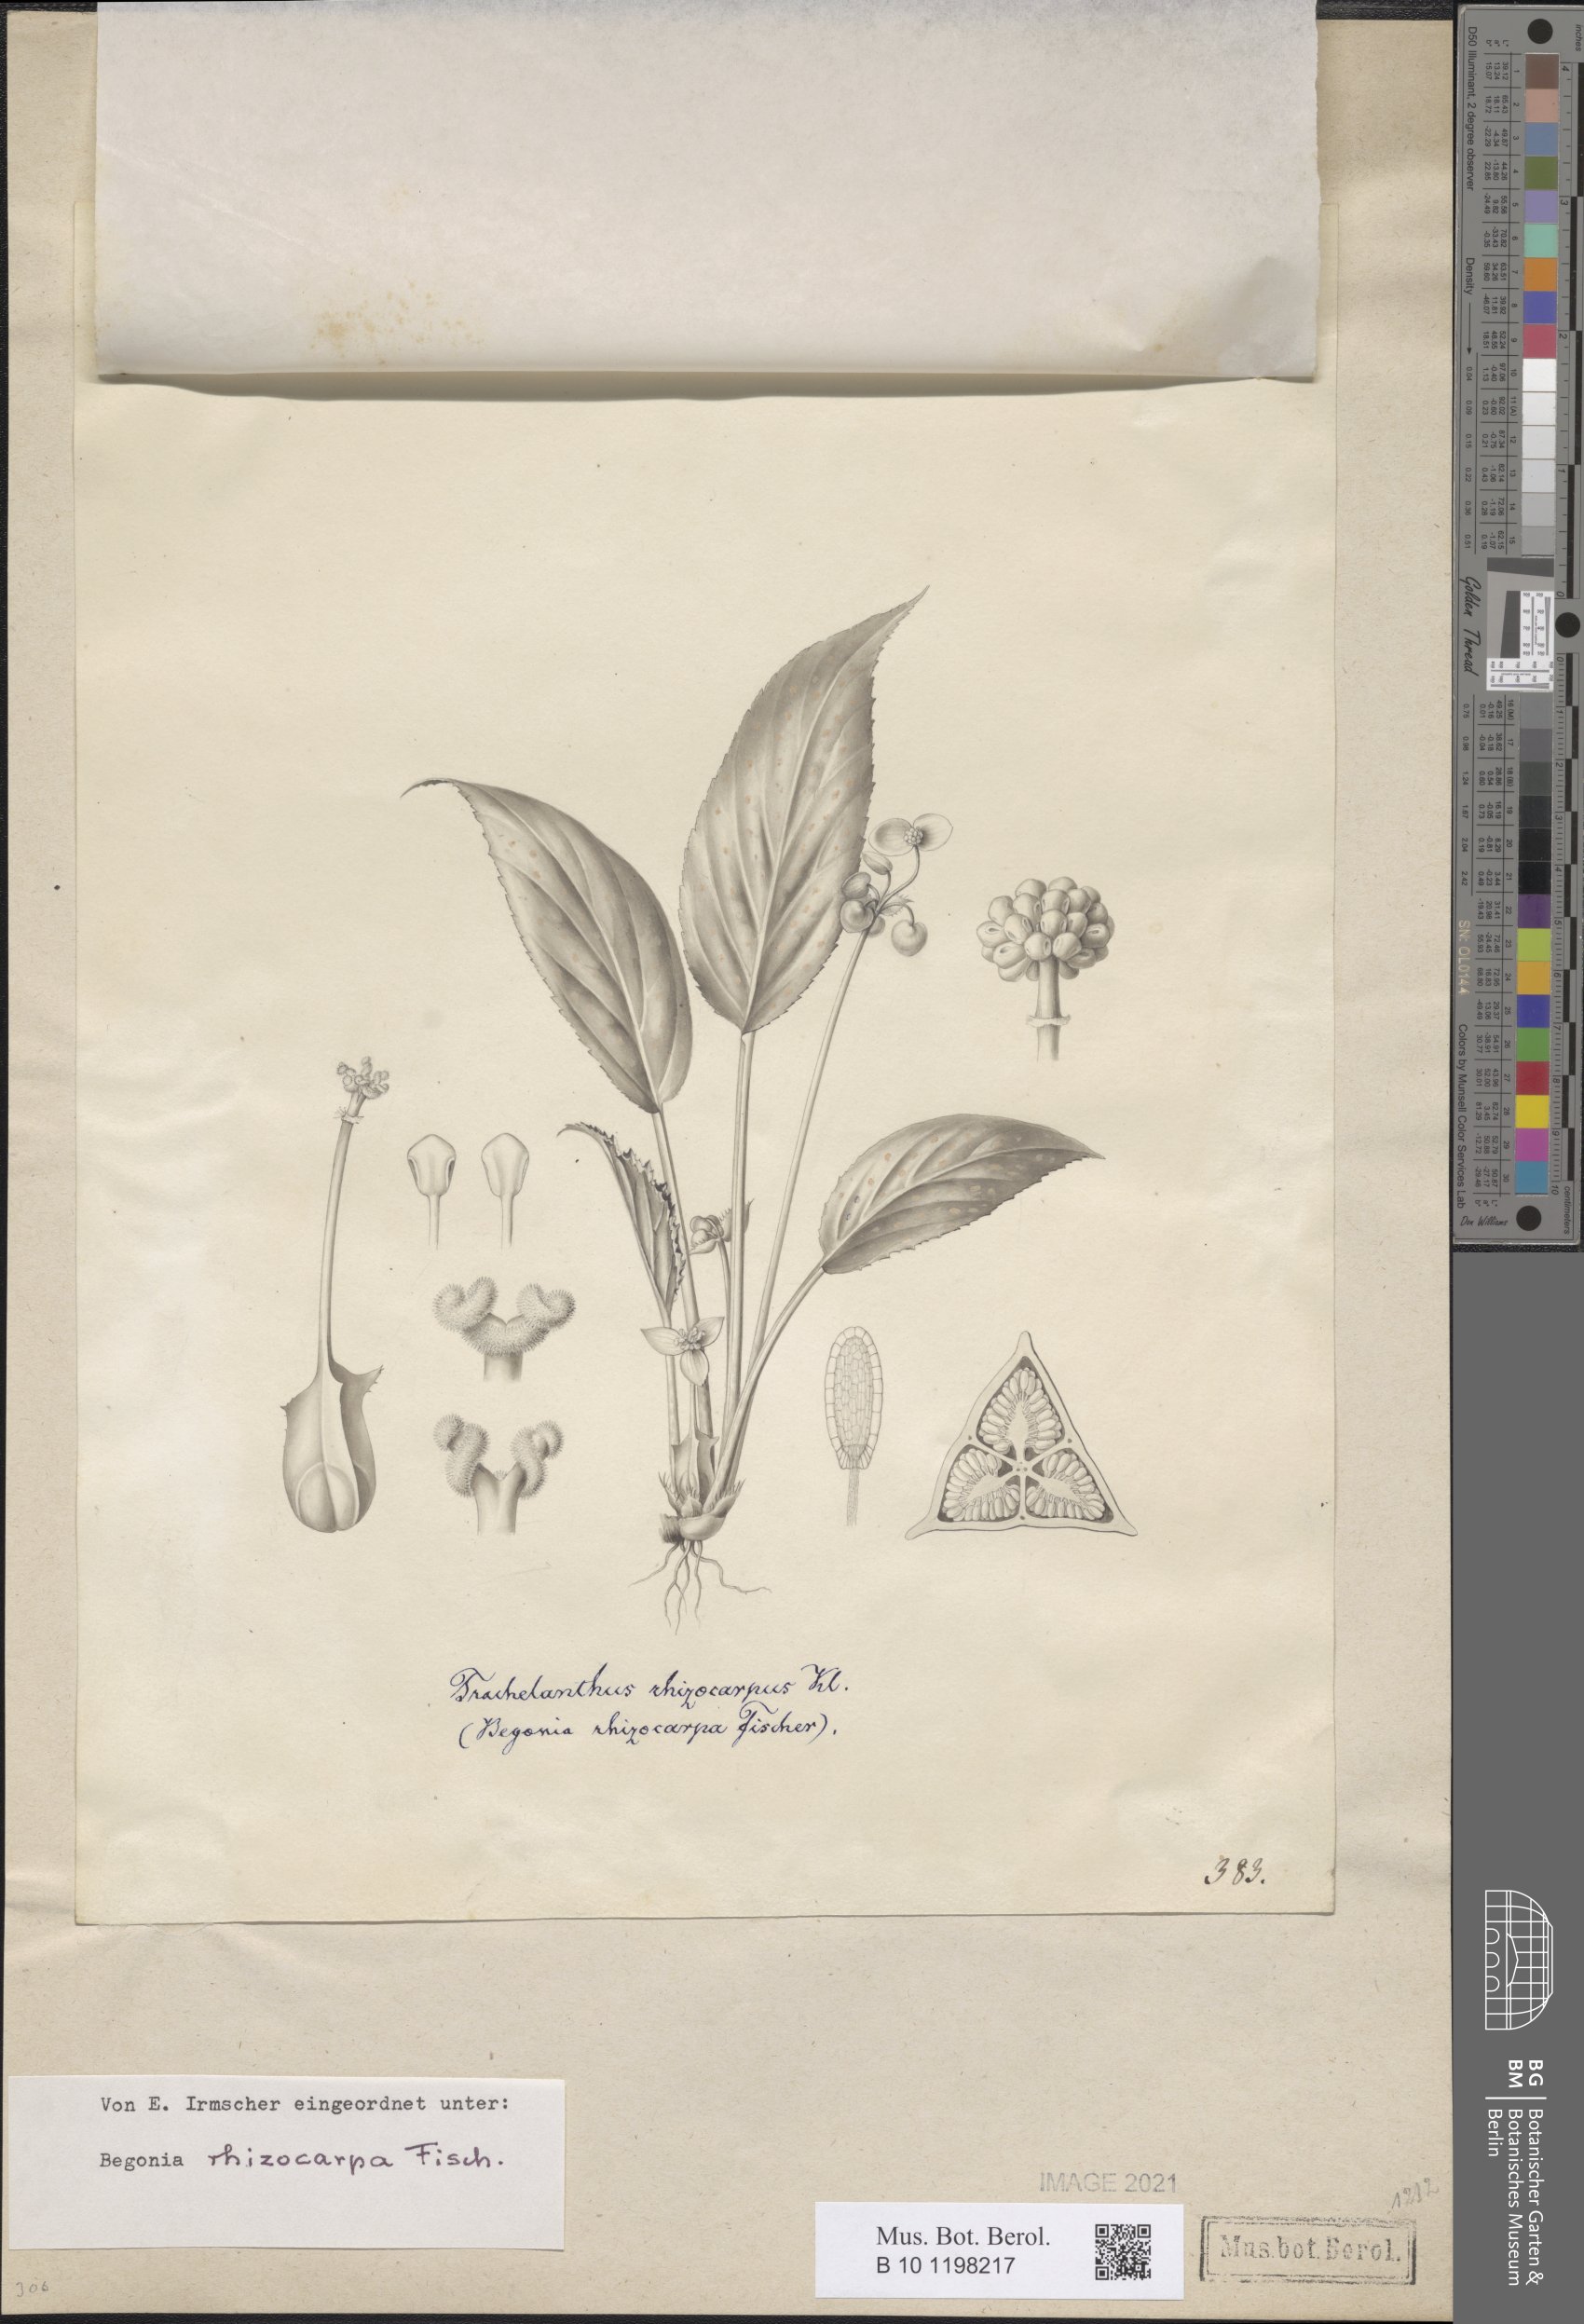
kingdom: Plantae
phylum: Tracheophyta
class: Magnoliopsida
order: Cucurbitales
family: Begoniaceae
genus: Begonia
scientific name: Begonia depauperata
